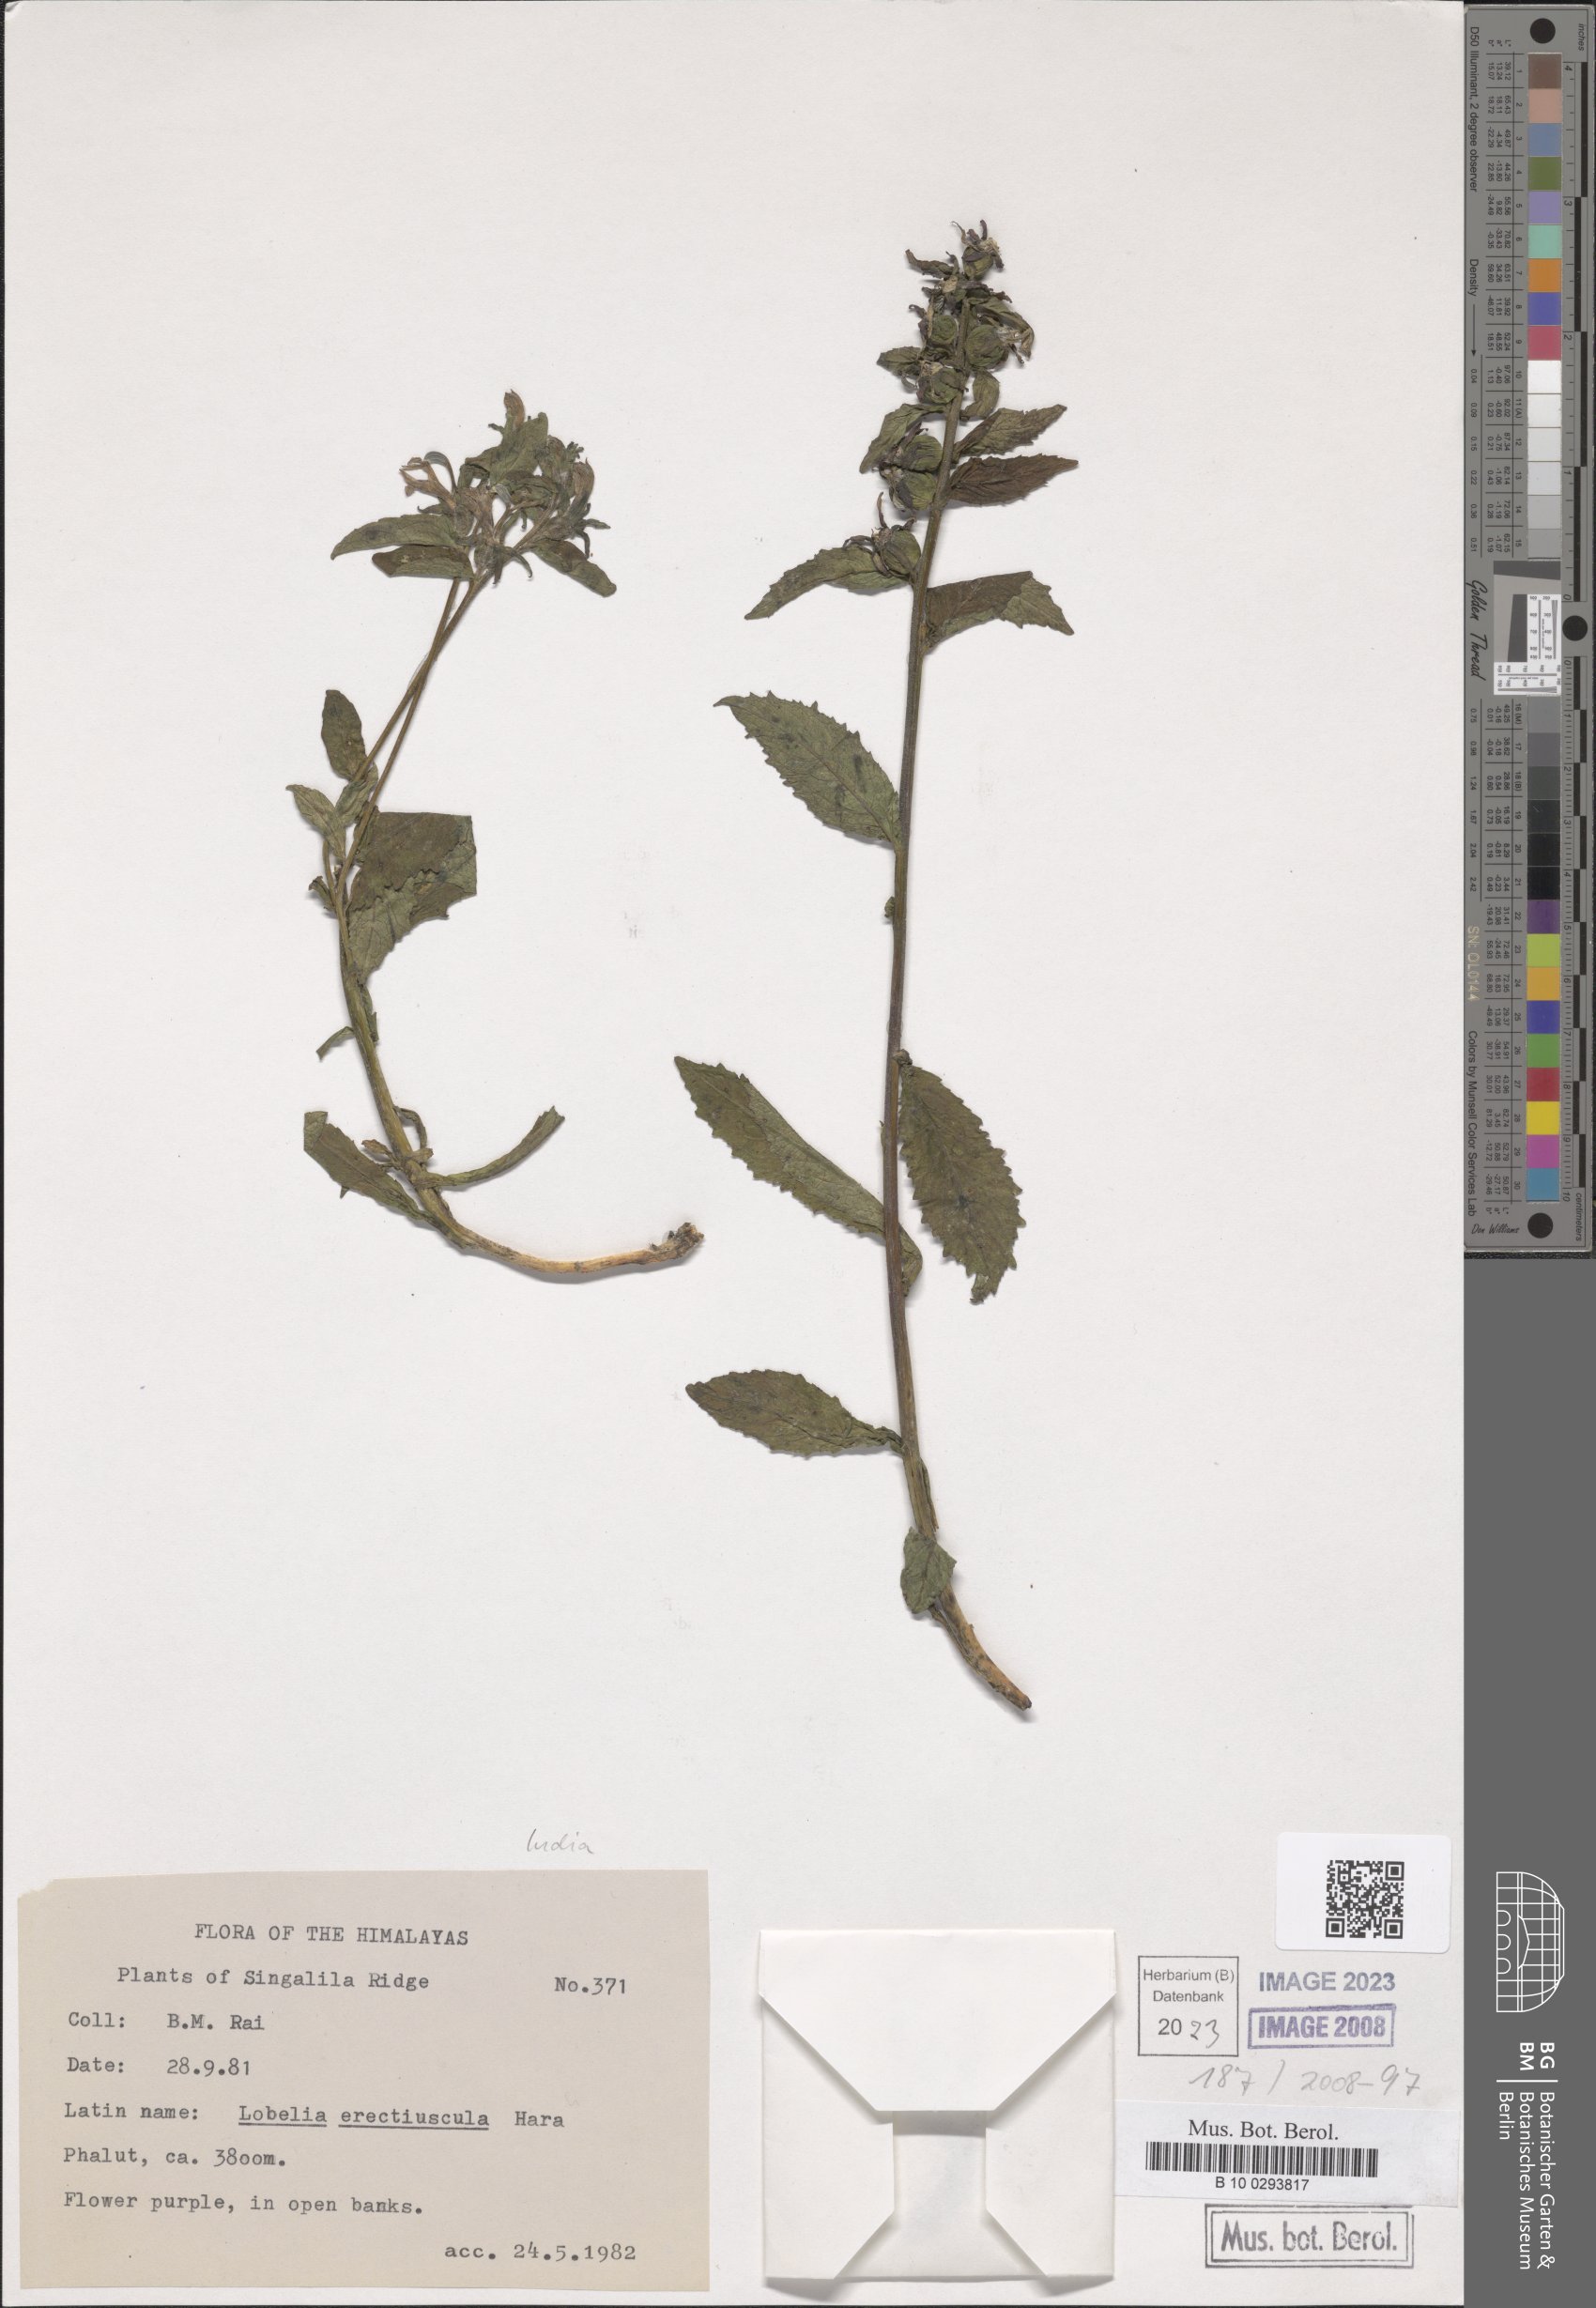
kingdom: Plantae
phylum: Tracheophyta
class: Magnoliopsida
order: Asterales
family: Campanulaceae
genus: Lobelia
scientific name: Lobelia erectiuscula
